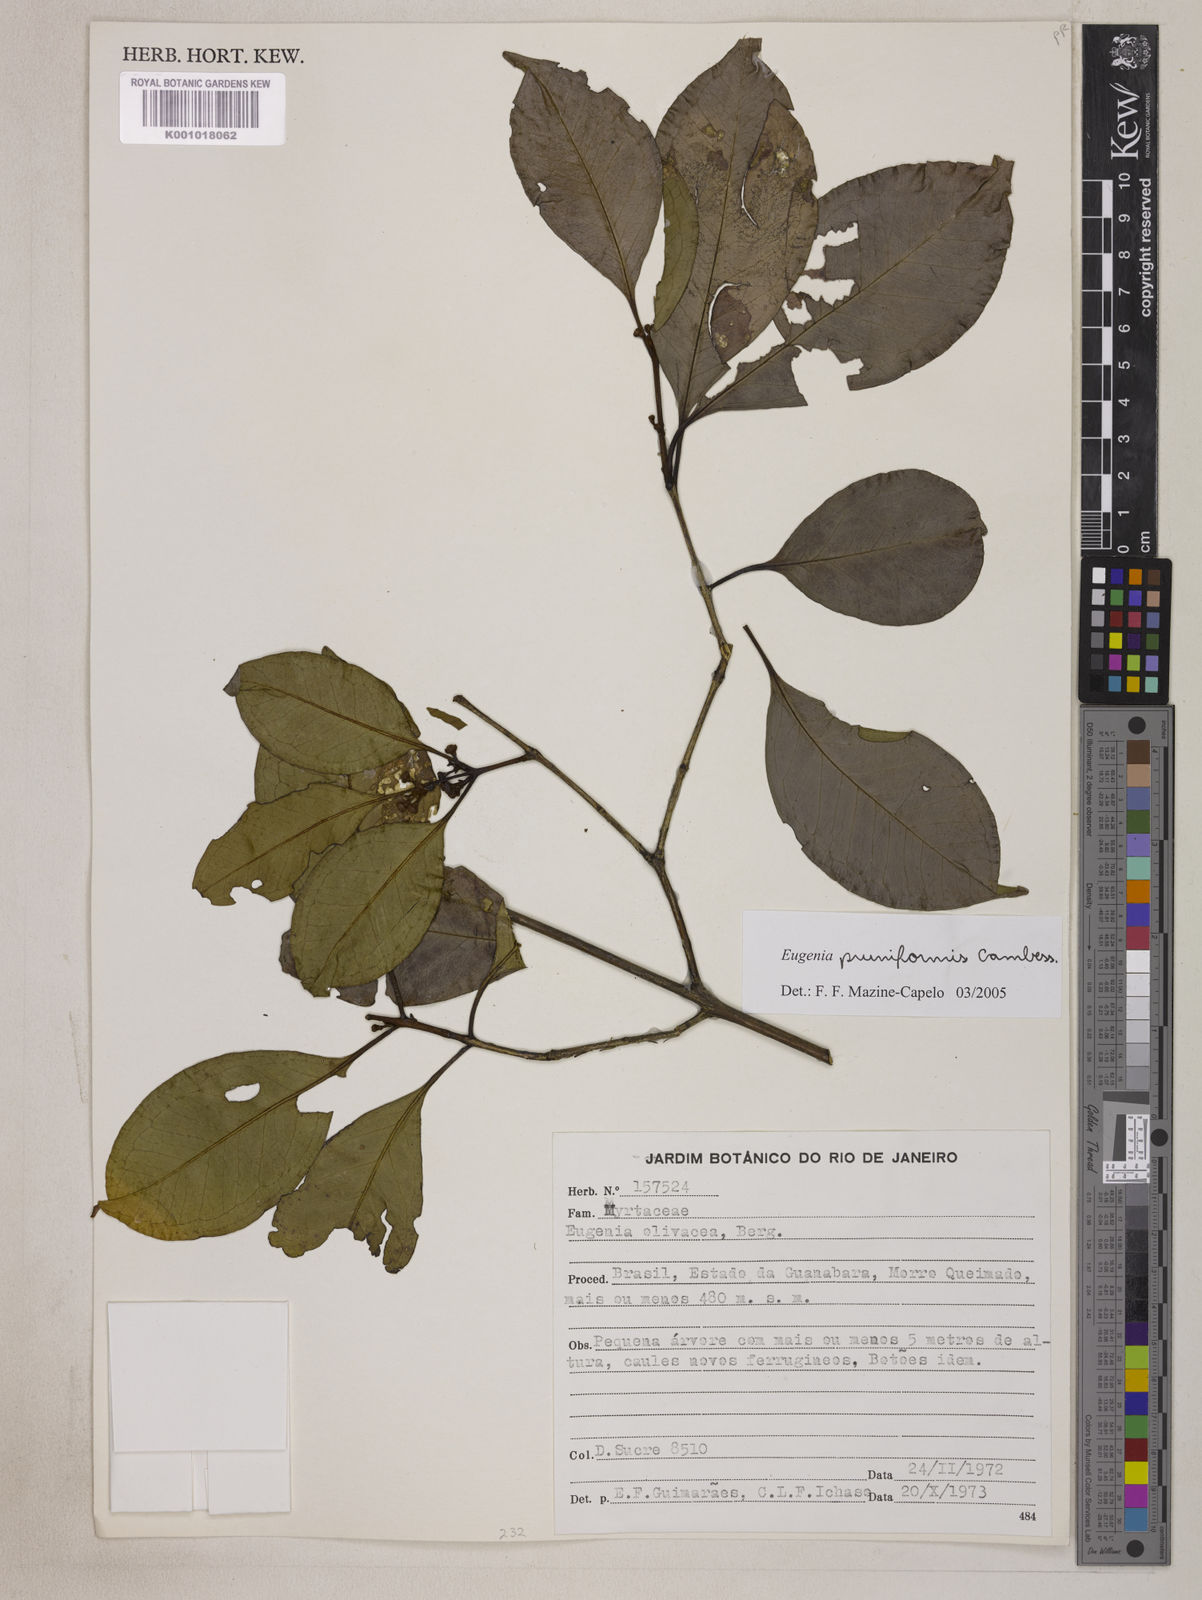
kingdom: Plantae
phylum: Tracheophyta
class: Magnoliopsida
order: Myrtales
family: Myrtaceae
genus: Eugenia
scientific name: Eugenia pruniformis
